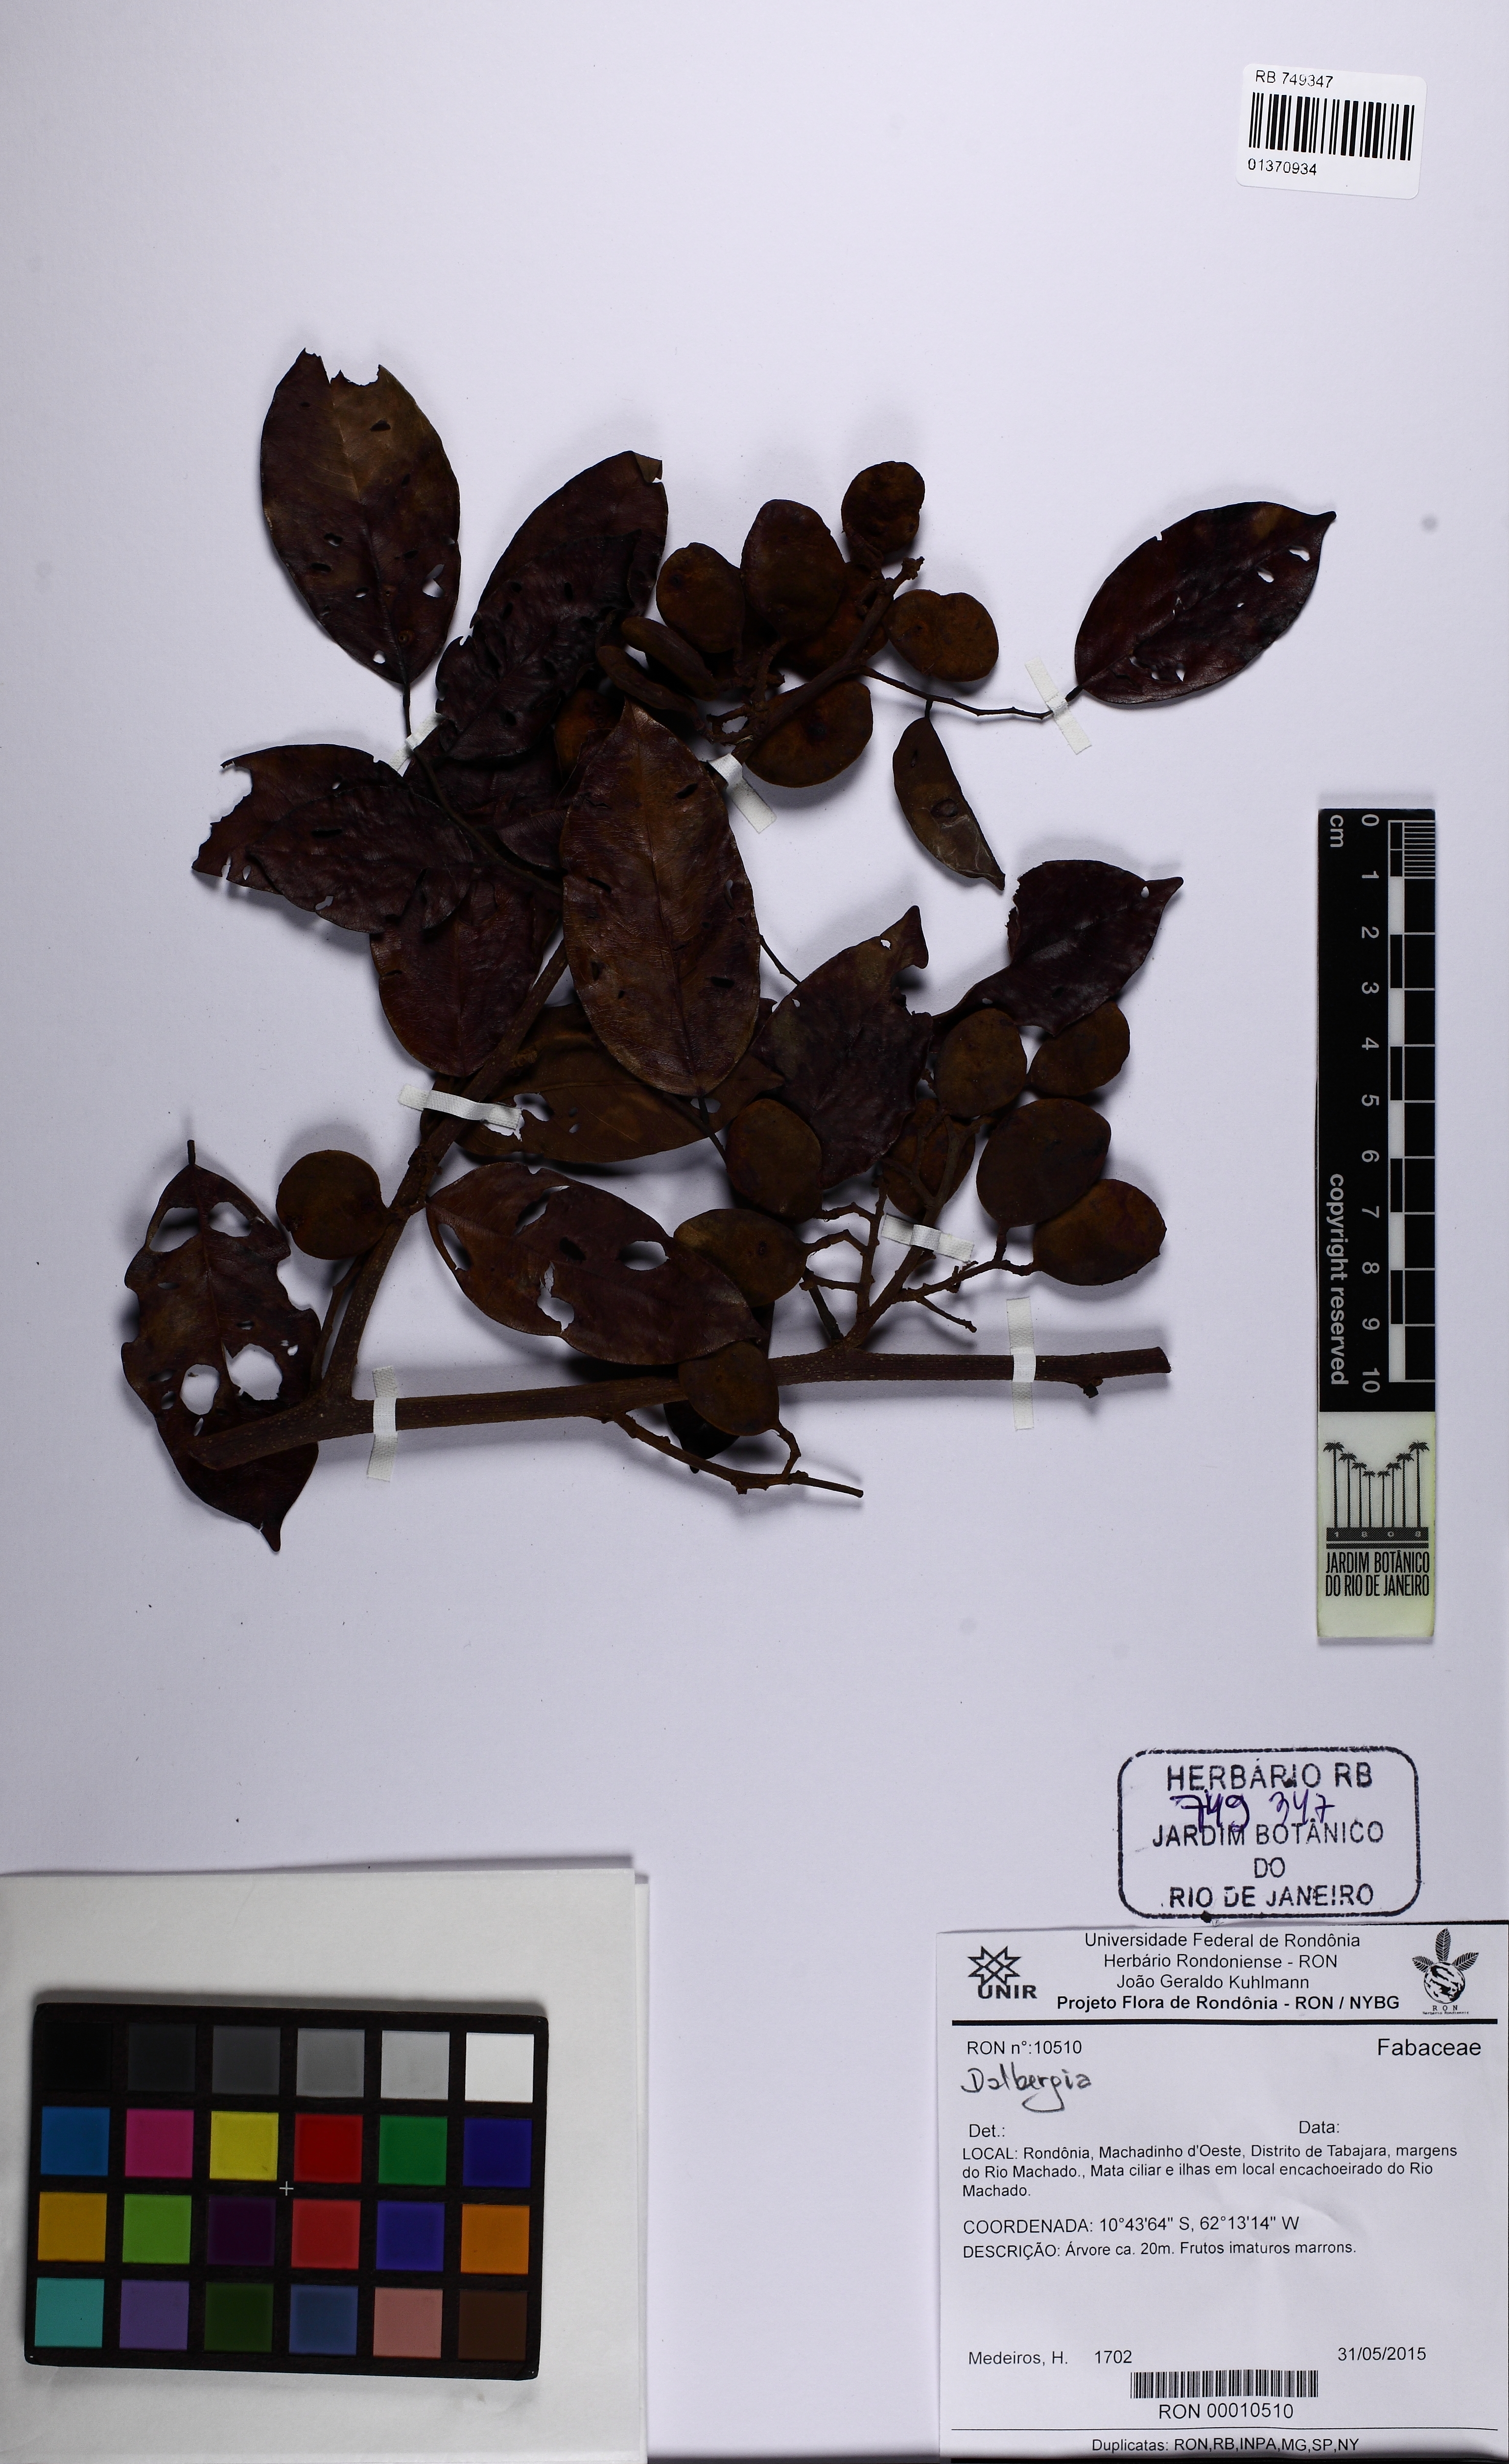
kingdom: Plantae
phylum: Tracheophyta
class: Magnoliopsida
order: Fabales
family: Fabaceae
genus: Dalbergia
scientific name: Dalbergia
